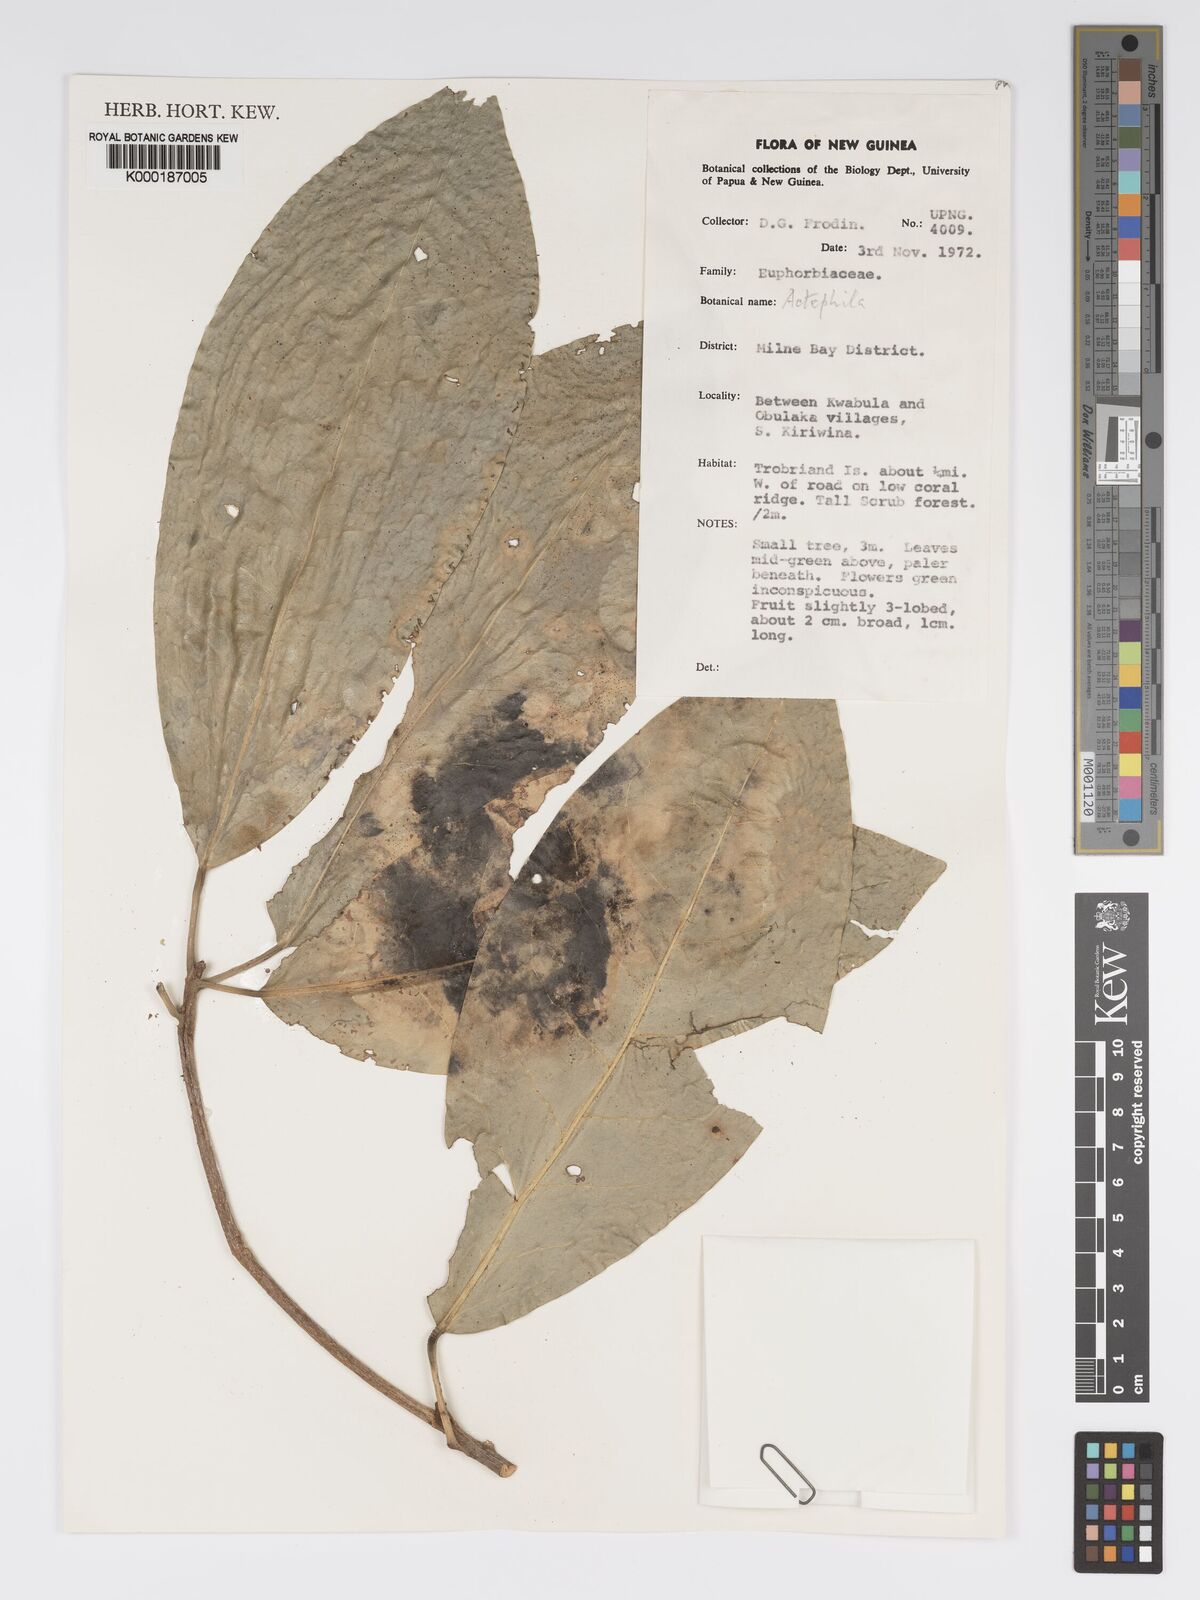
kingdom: Plantae
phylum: Tracheophyta
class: Magnoliopsida
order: Malpighiales
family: Phyllanthaceae
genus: Actephila
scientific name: Actephila
